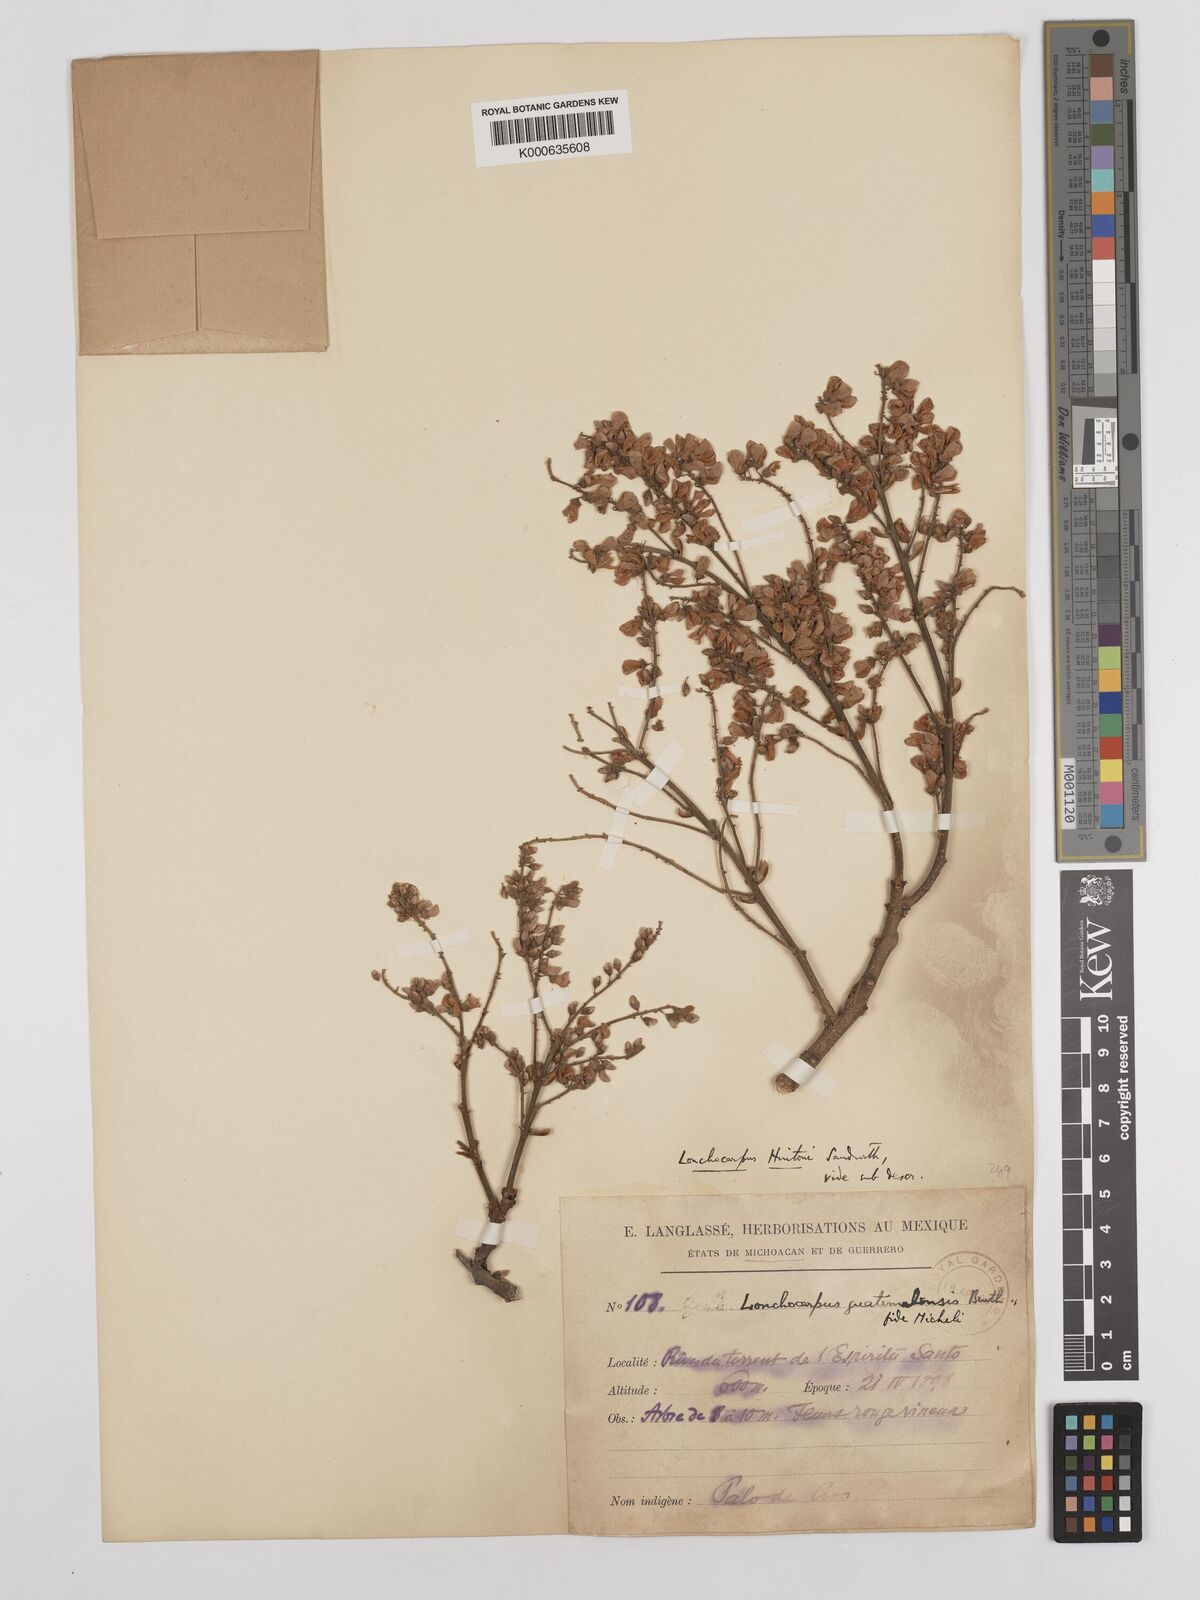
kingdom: Plantae
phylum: Tracheophyta
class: Magnoliopsida
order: Fabales
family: Fabaceae
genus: Lonchocarpus
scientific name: Lonchocarpus hintonii
